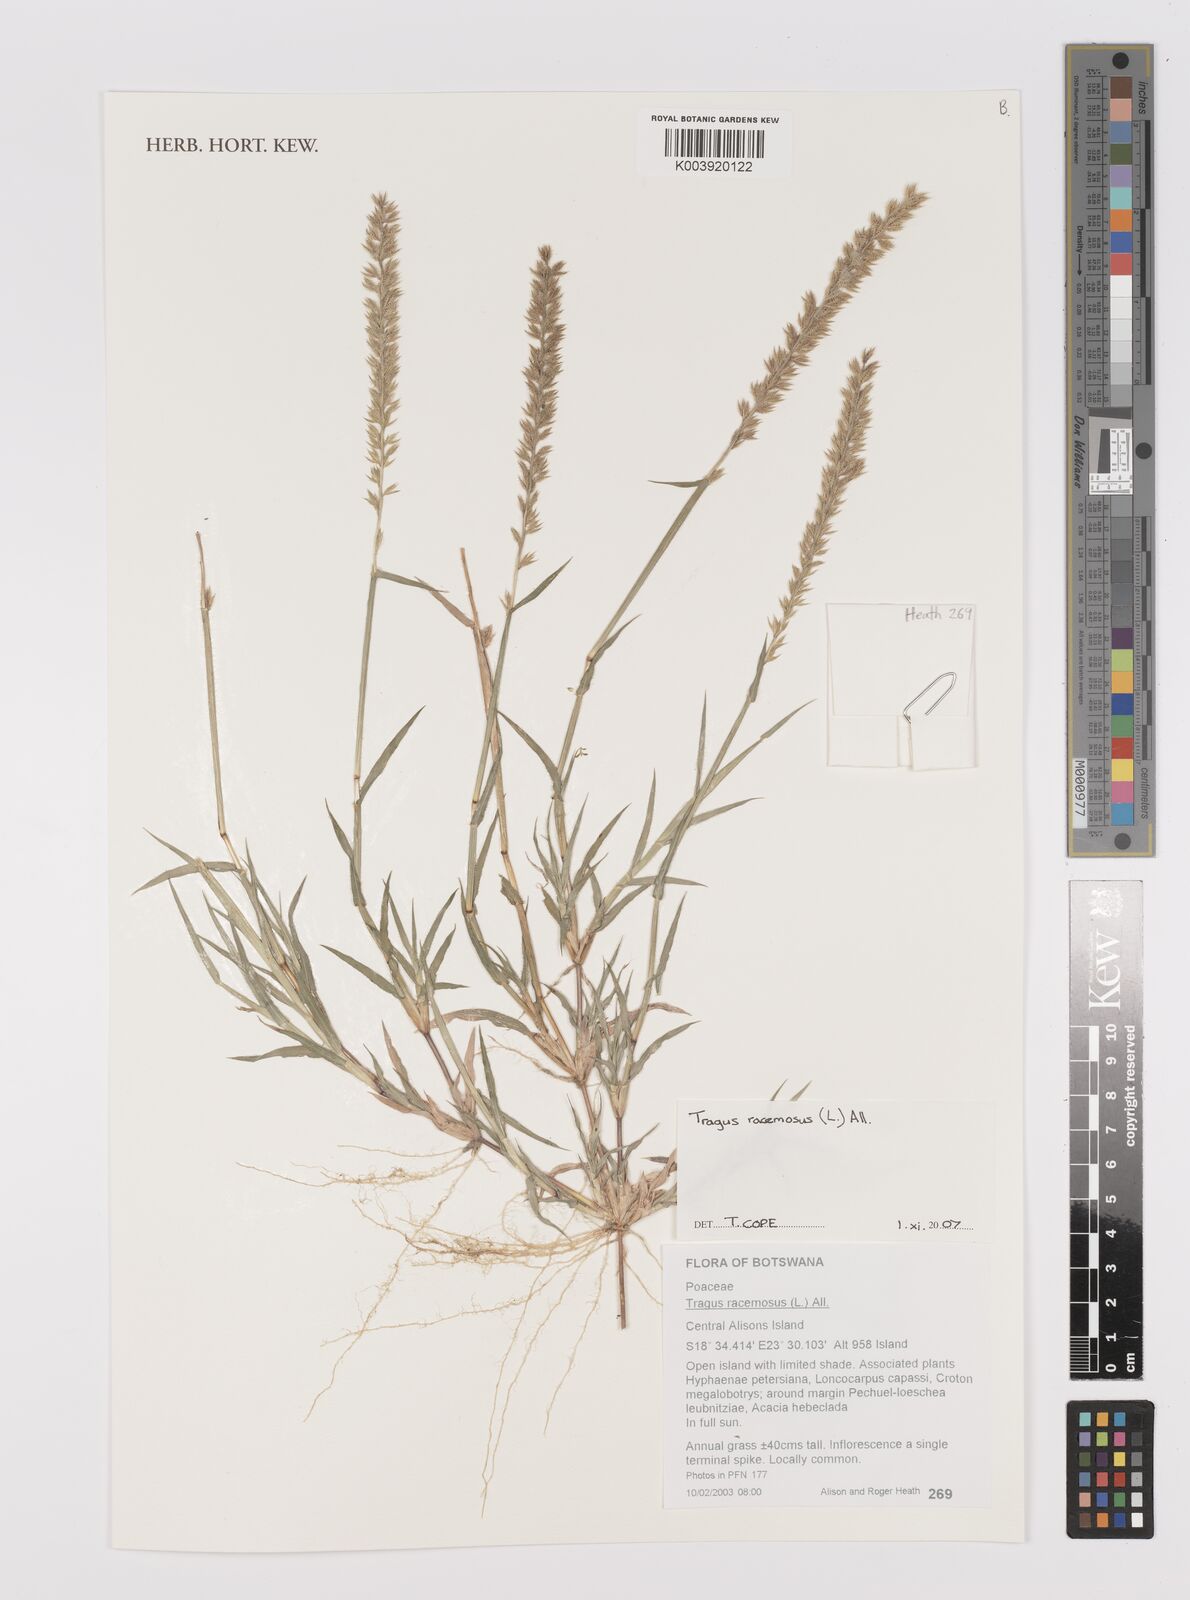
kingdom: Plantae
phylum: Tracheophyta
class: Liliopsida
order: Poales
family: Poaceae
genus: Tragus
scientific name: Tragus racemosus
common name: European bur-grass
